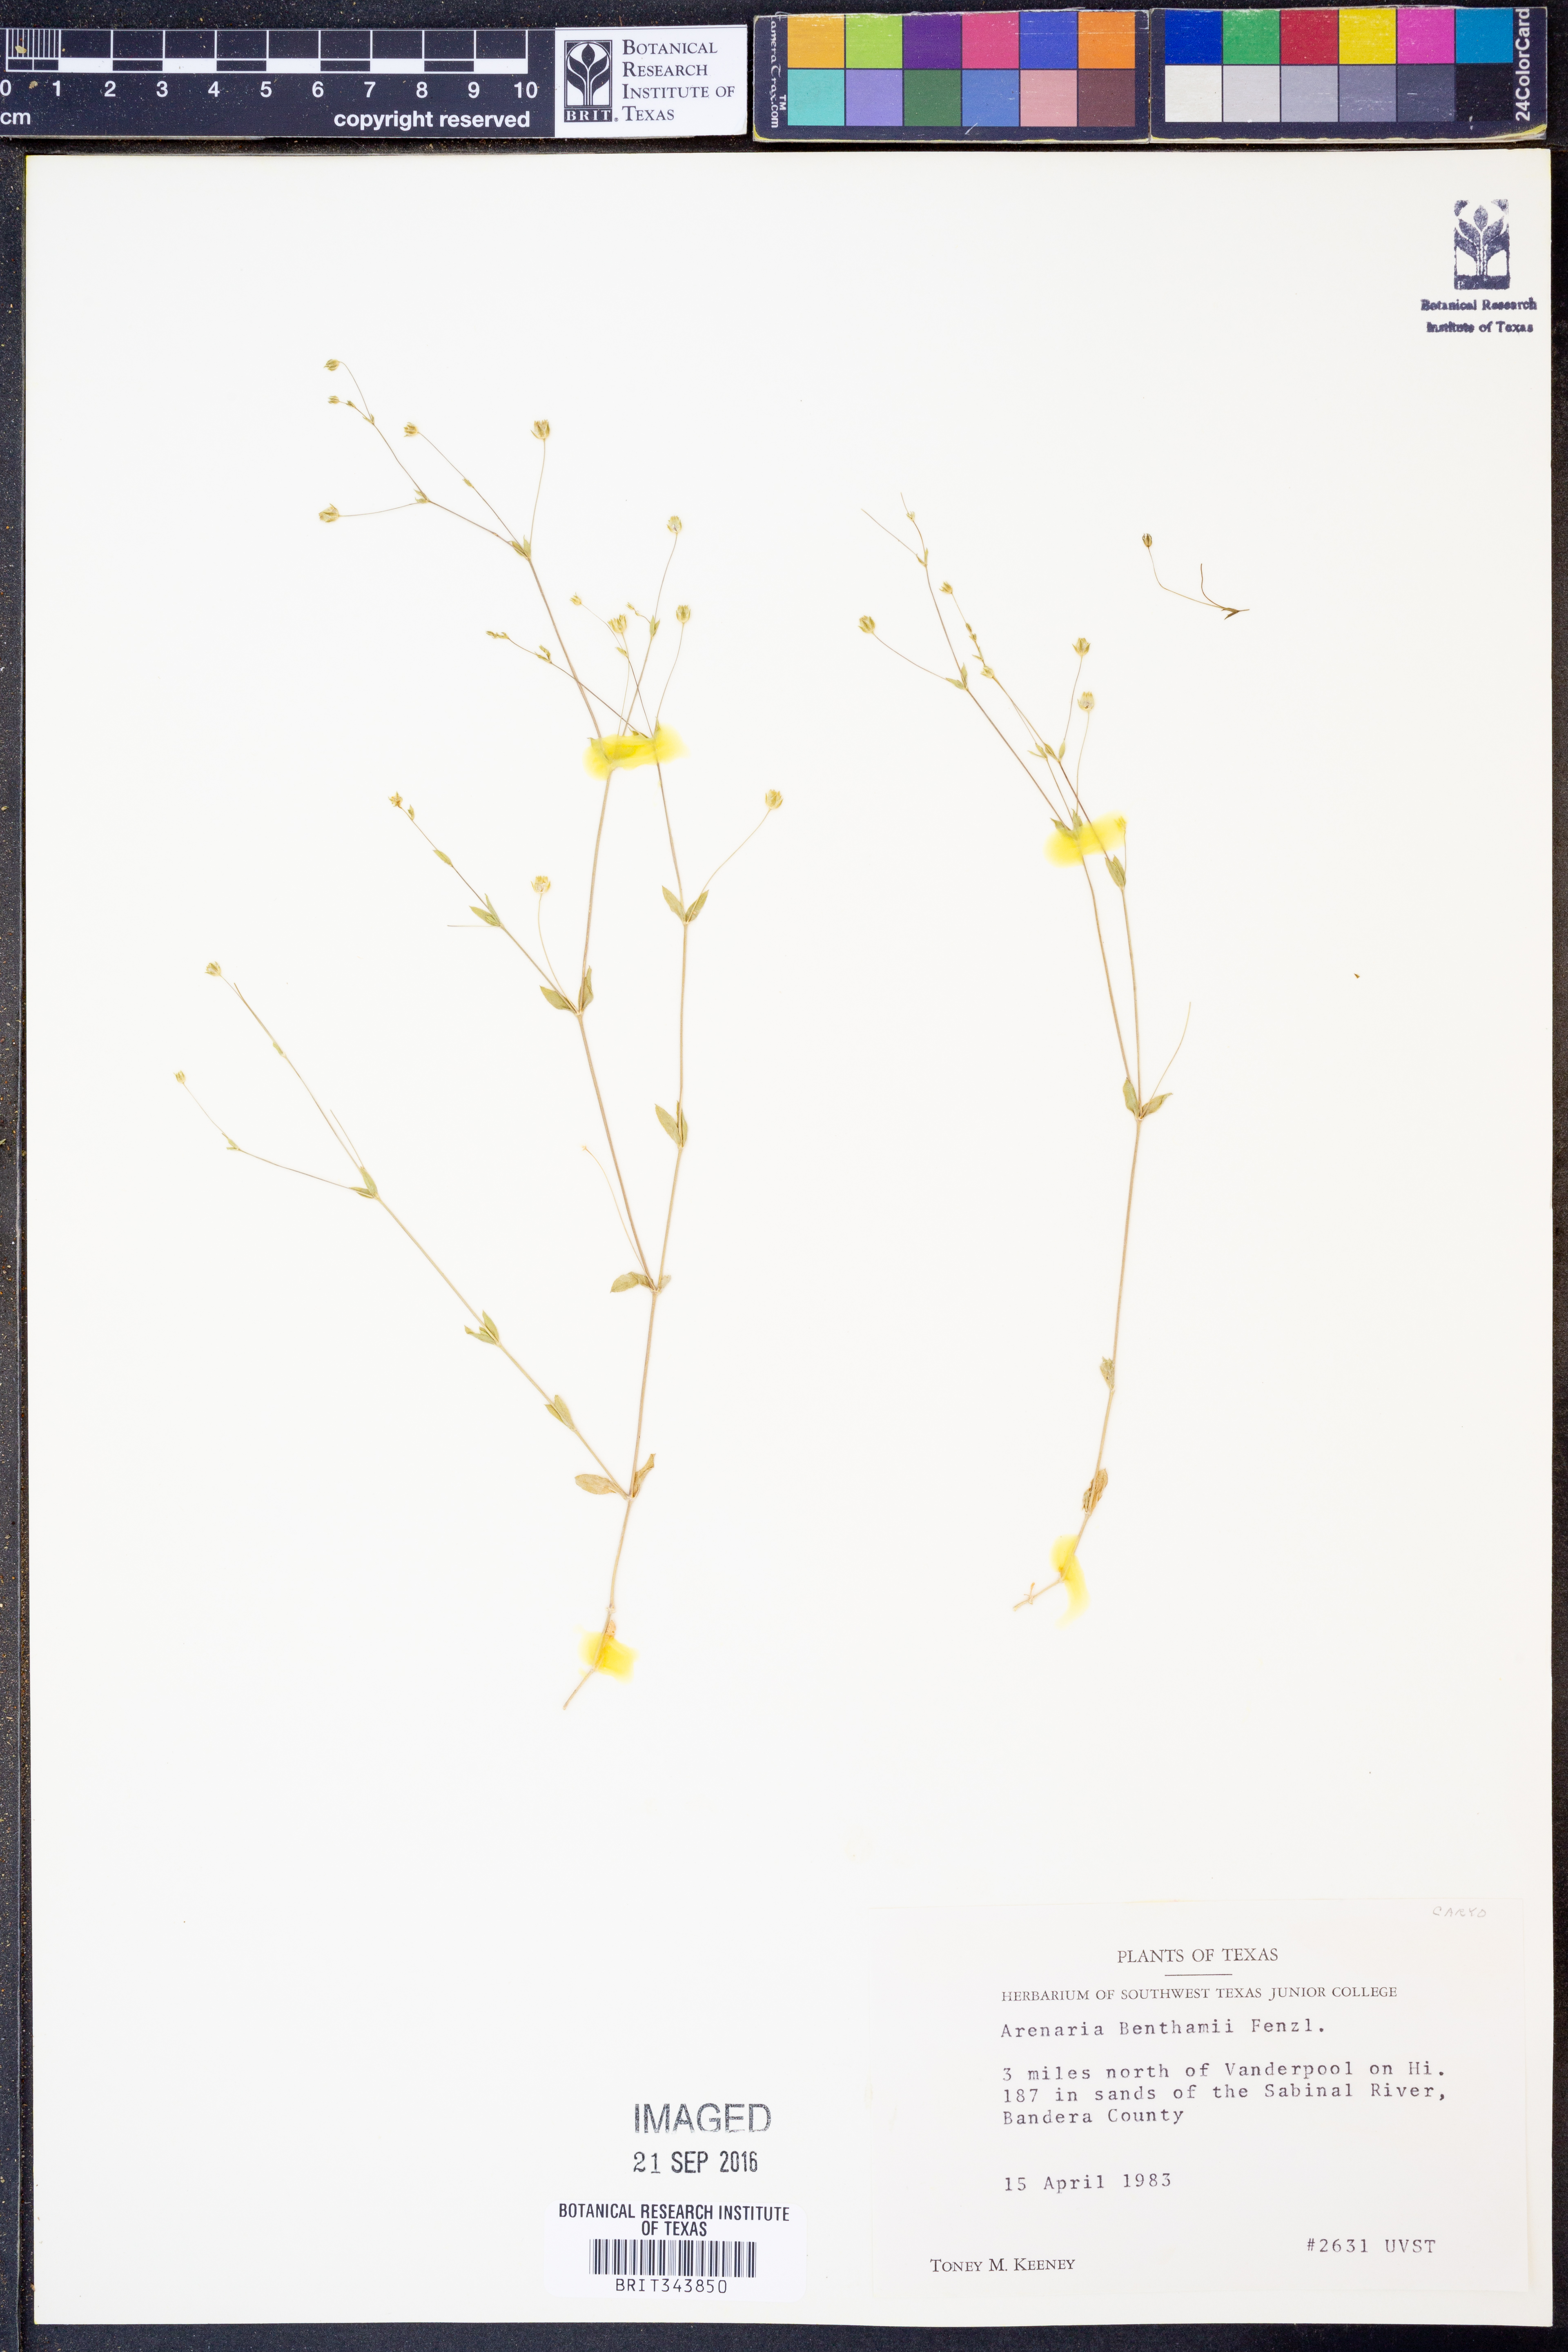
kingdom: Plantae
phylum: Tracheophyta
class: Magnoliopsida
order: Caryophyllales
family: Caryophyllaceae
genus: Arenaria
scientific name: Arenaria benthamii
